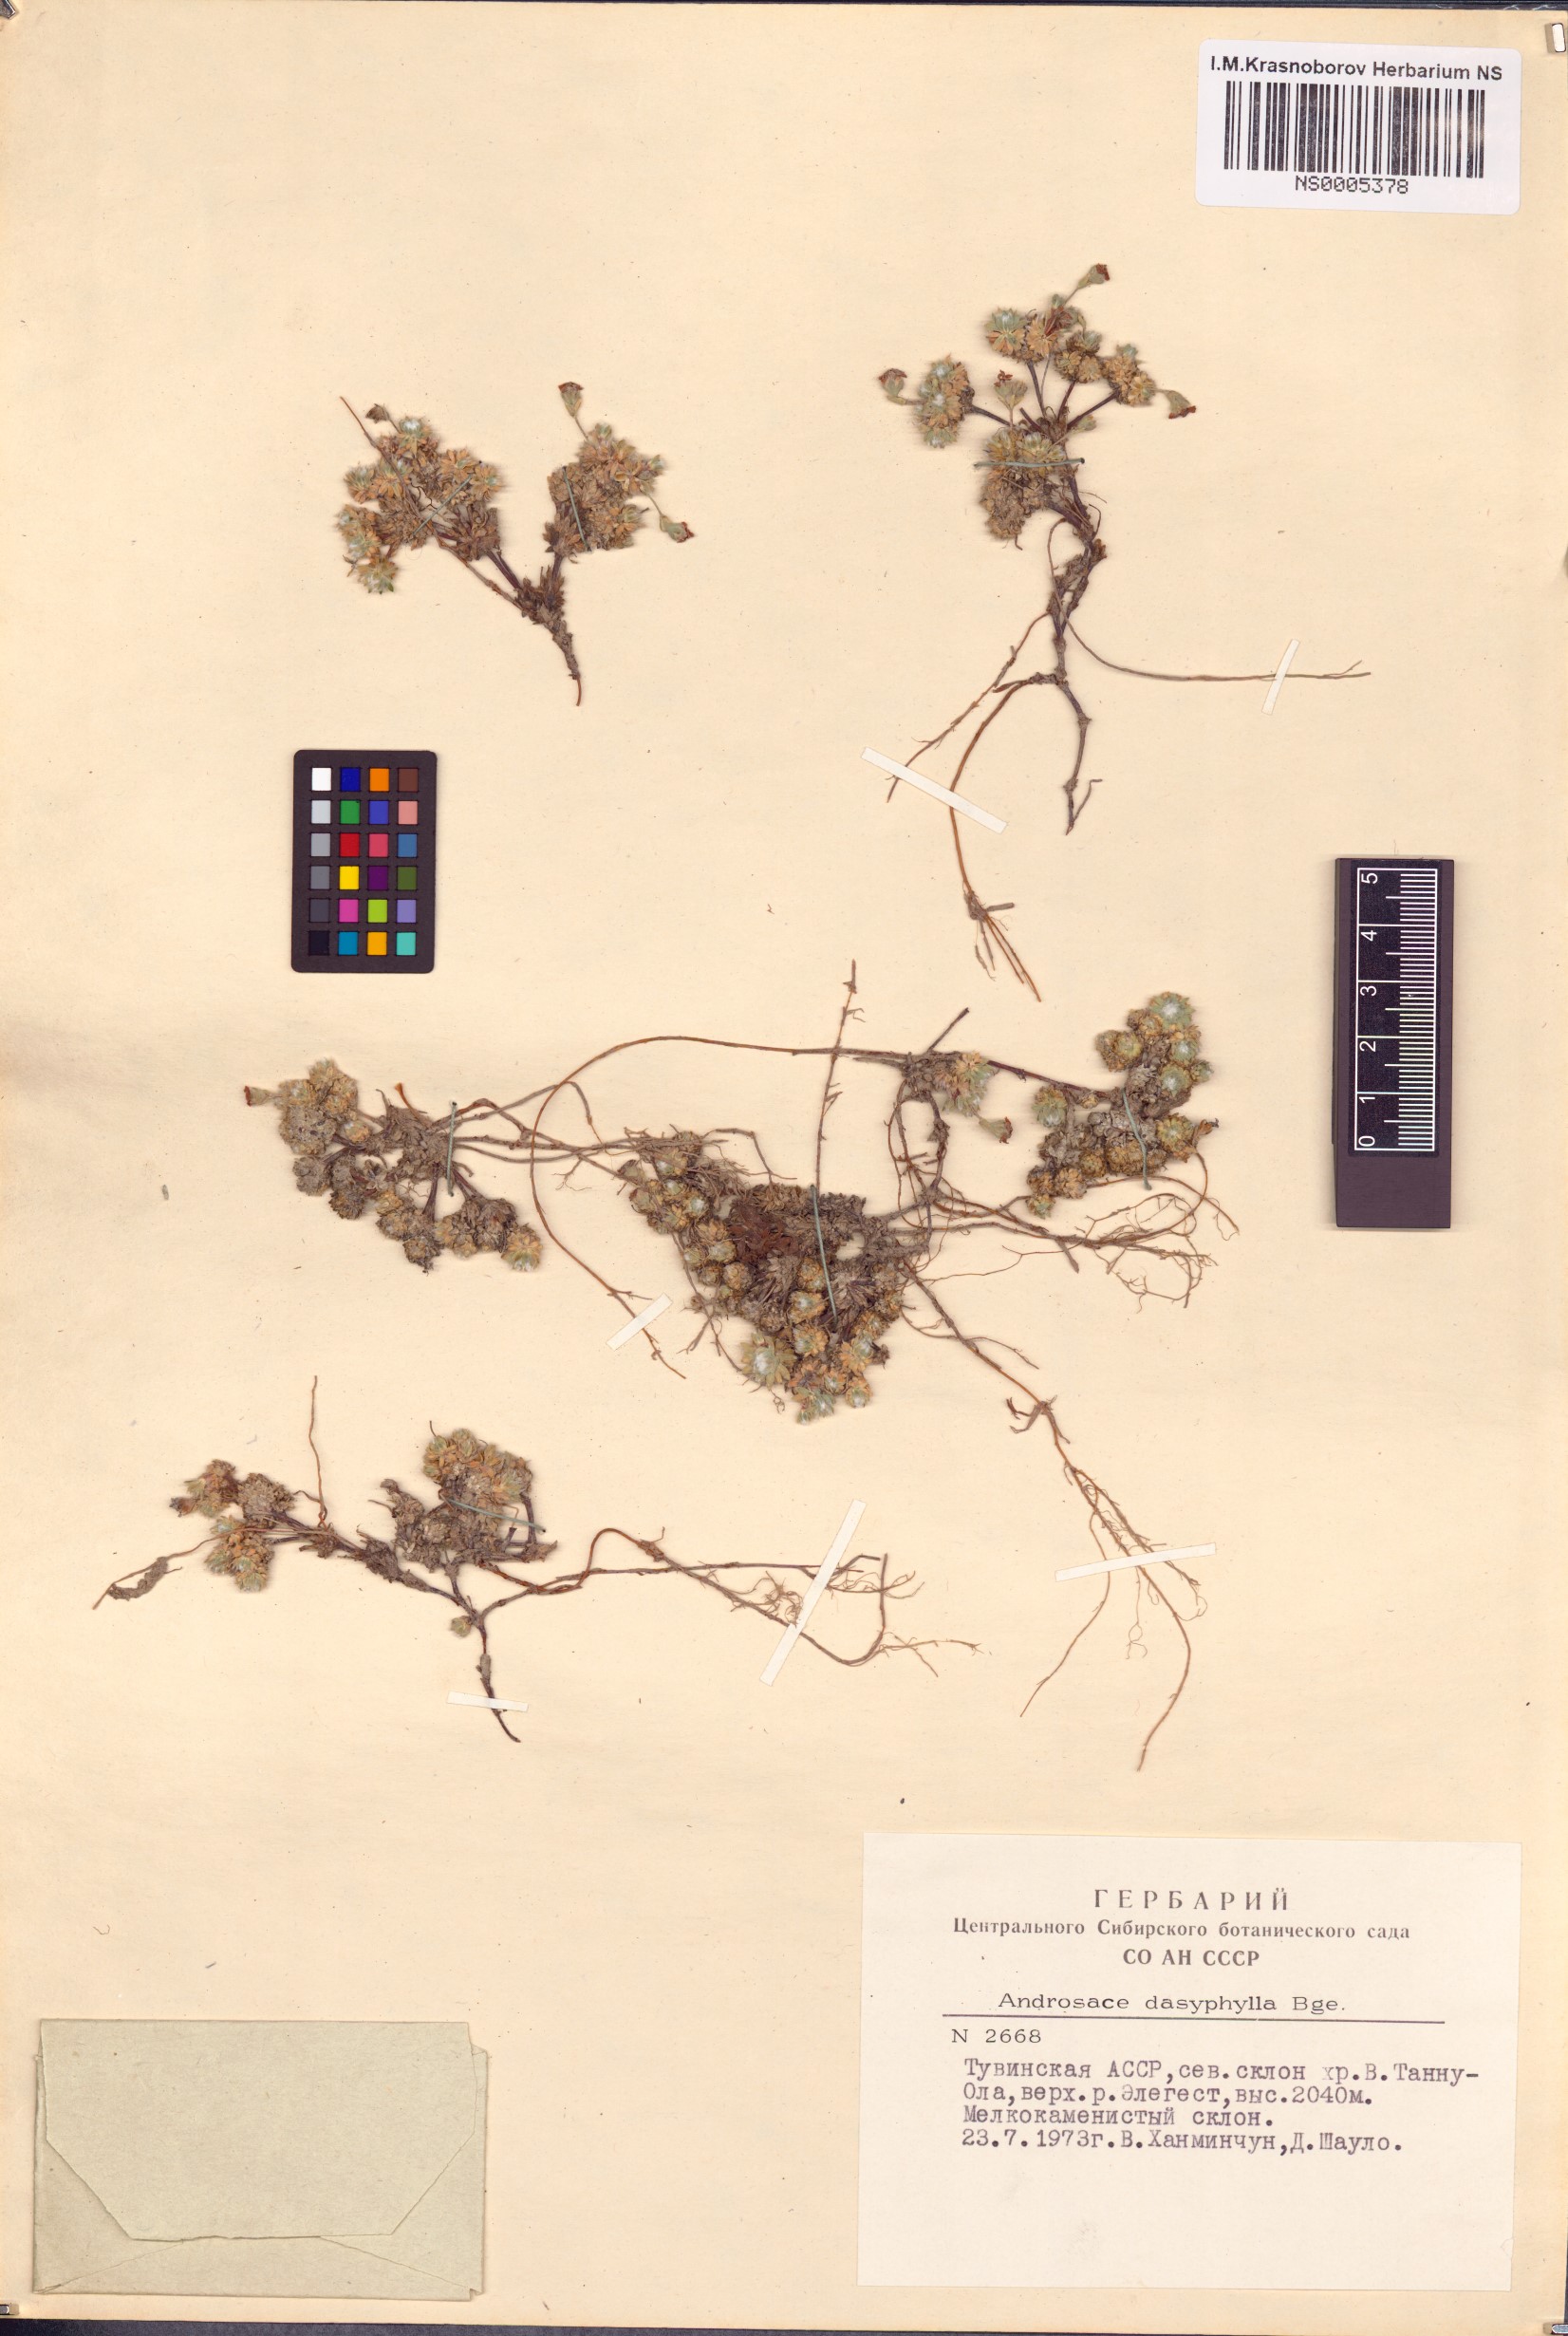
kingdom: Plantae
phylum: Tracheophyta
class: Magnoliopsida
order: Ericales
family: Primulaceae
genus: Androsace
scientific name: Androsace dasyphylla
